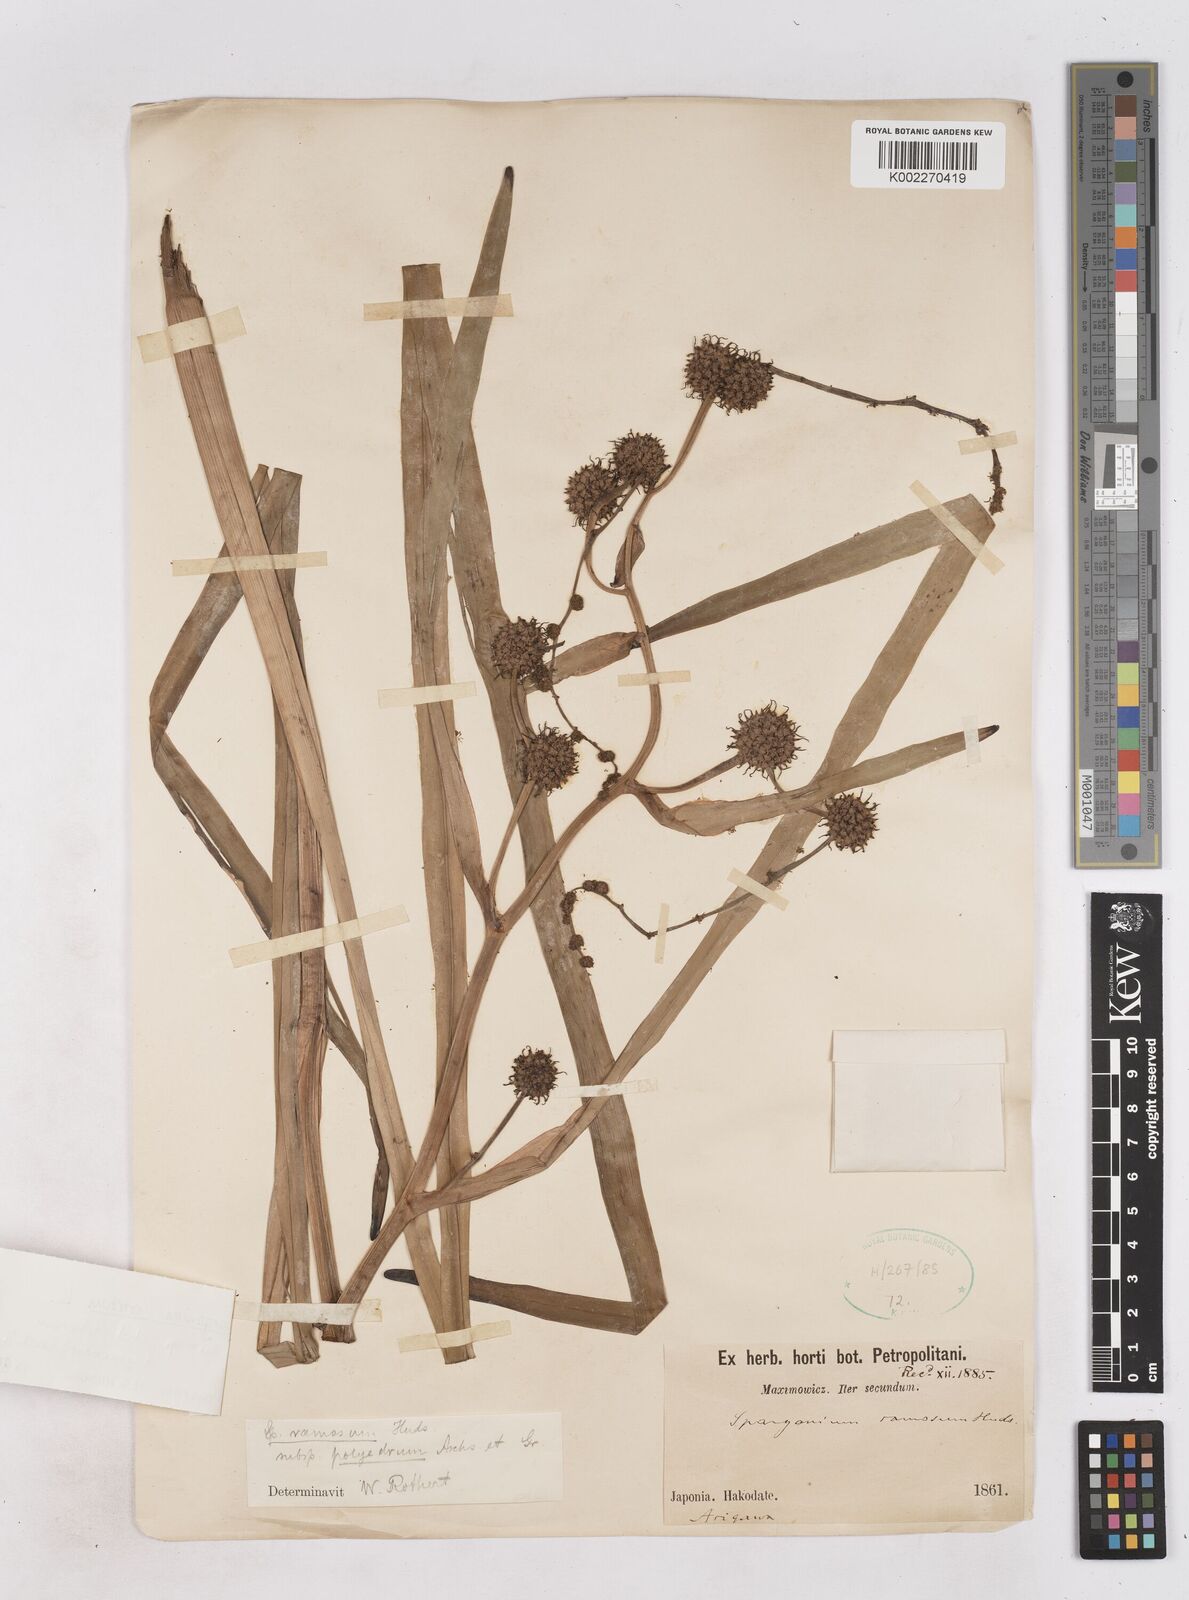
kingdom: Plantae
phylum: Tracheophyta
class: Liliopsida
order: Poales
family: Typhaceae
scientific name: Typhaceae
